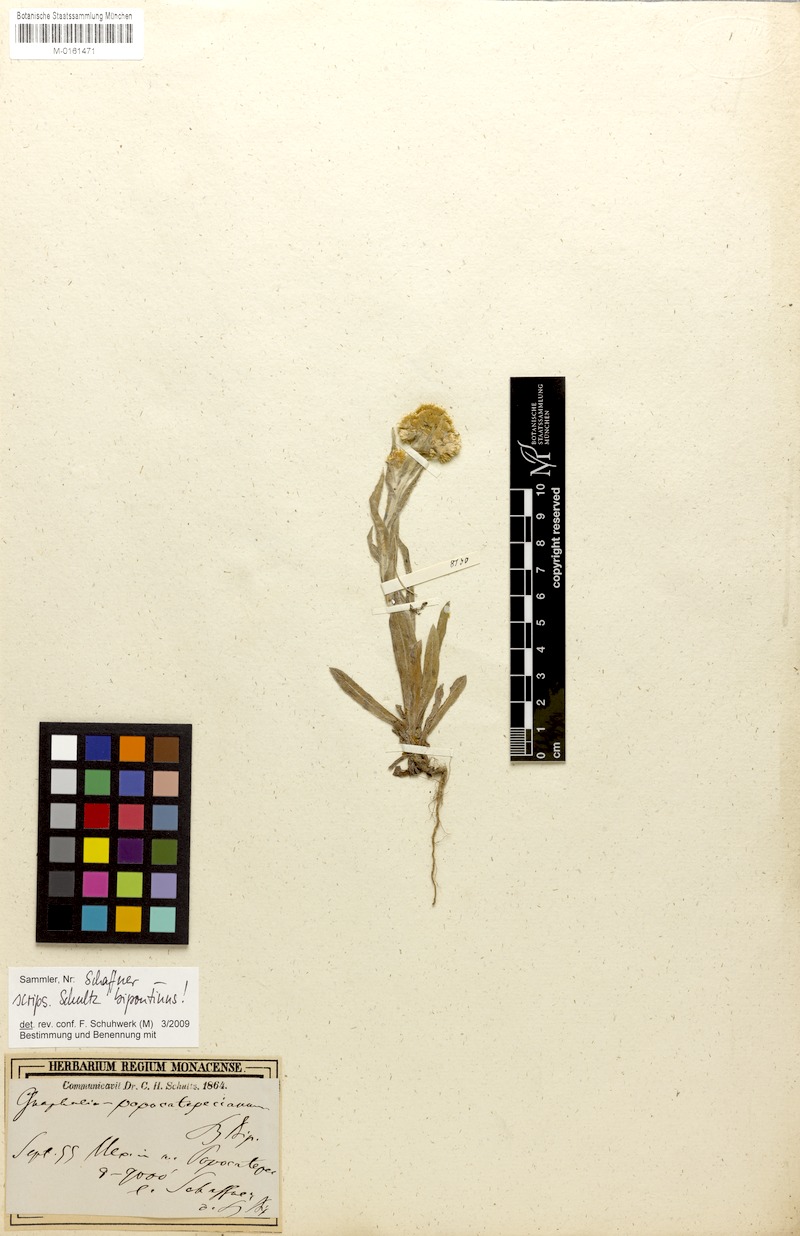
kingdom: Plantae
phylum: Tracheophyta
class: Magnoliopsida
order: Asterales
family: Asteraceae
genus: Pseudognaphalium
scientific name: Pseudognaphalium liebmannii
